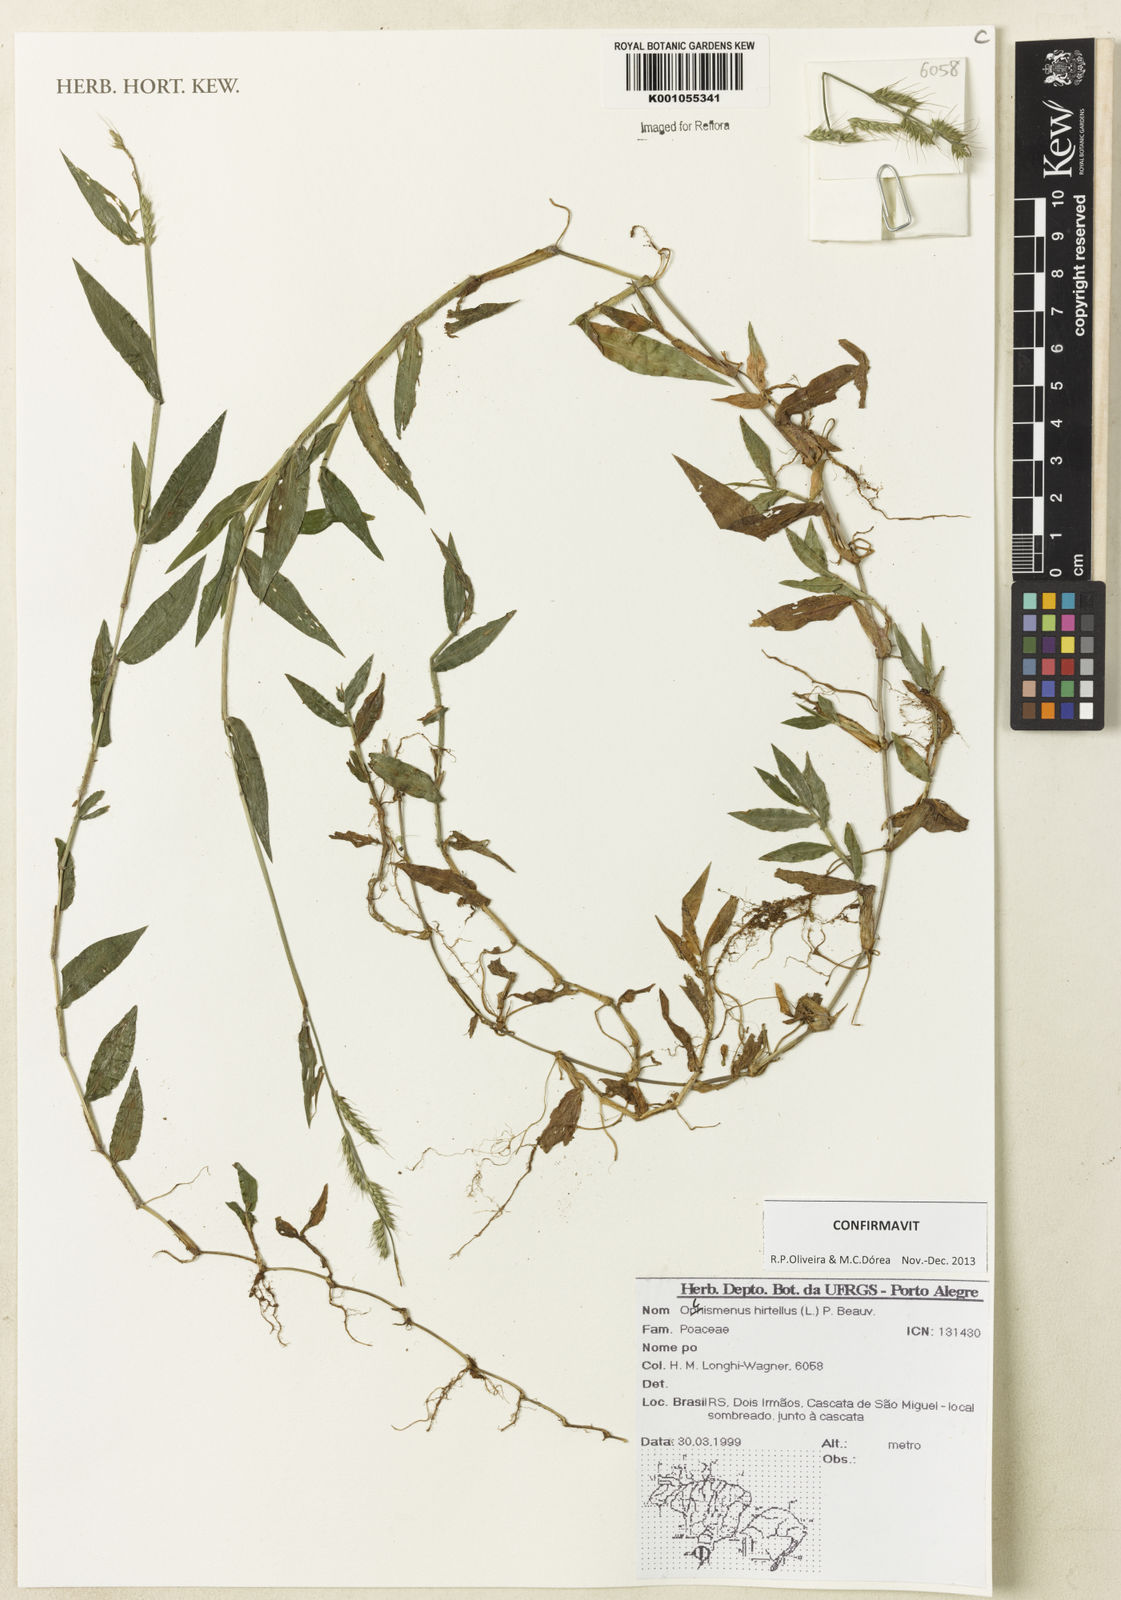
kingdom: Plantae
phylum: Tracheophyta
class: Liliopsida
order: Poales
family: Poaceae
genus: Oplismenus
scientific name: Oplismenus hirtellus
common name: Basketgrass
